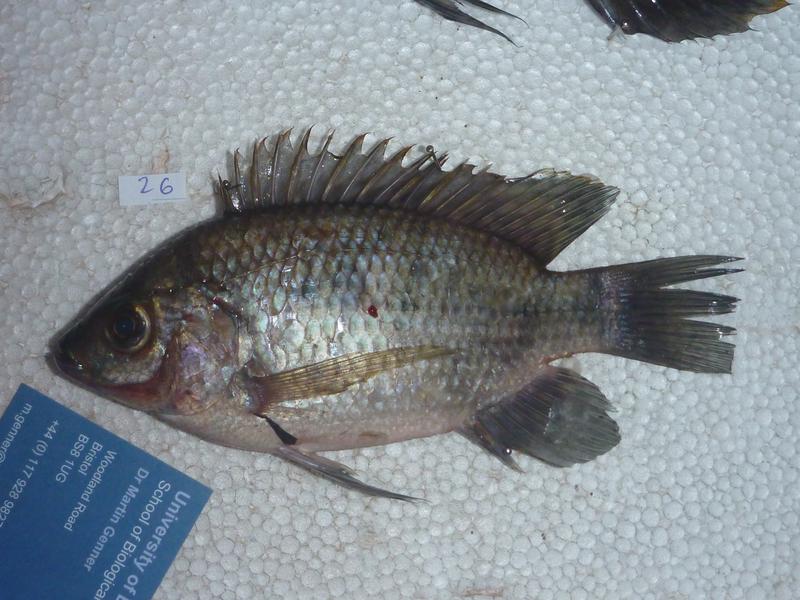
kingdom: Animalia
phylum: Chordata
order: Perciformes
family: Cichlidae
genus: Oreochromis
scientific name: Oreochromis upembae
